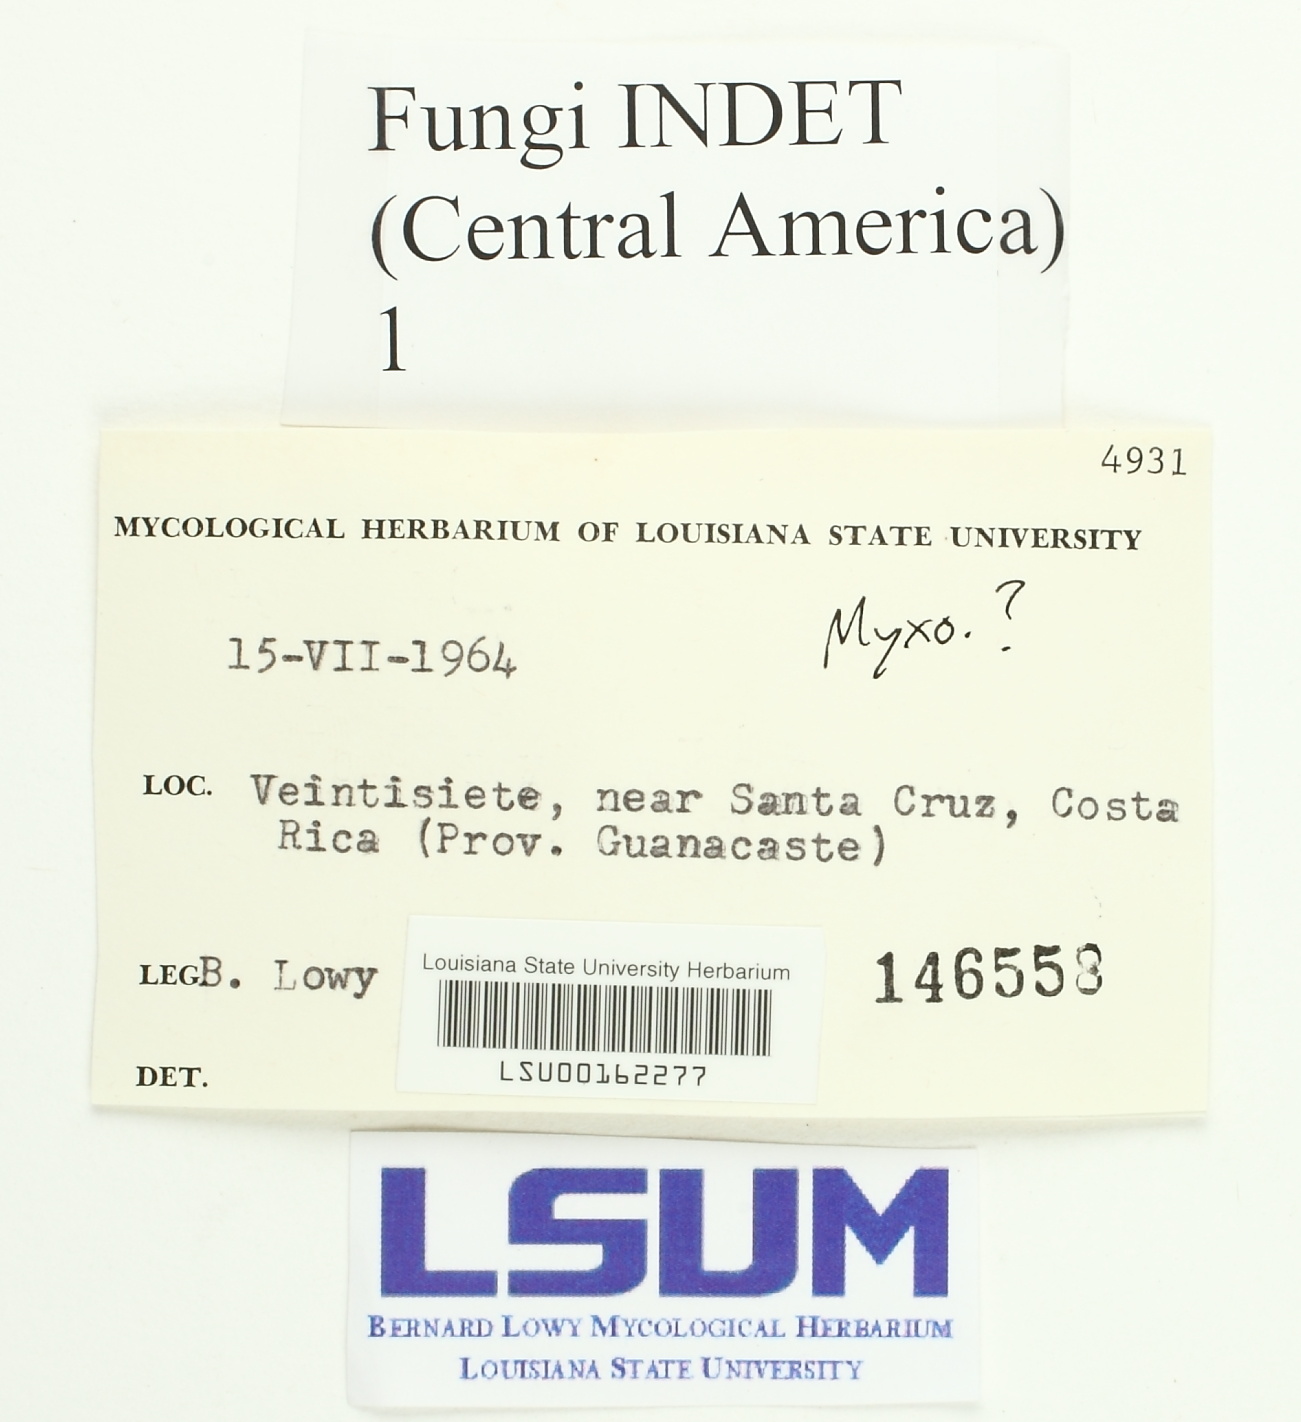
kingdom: Fungi
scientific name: Fungi
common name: Fungi
